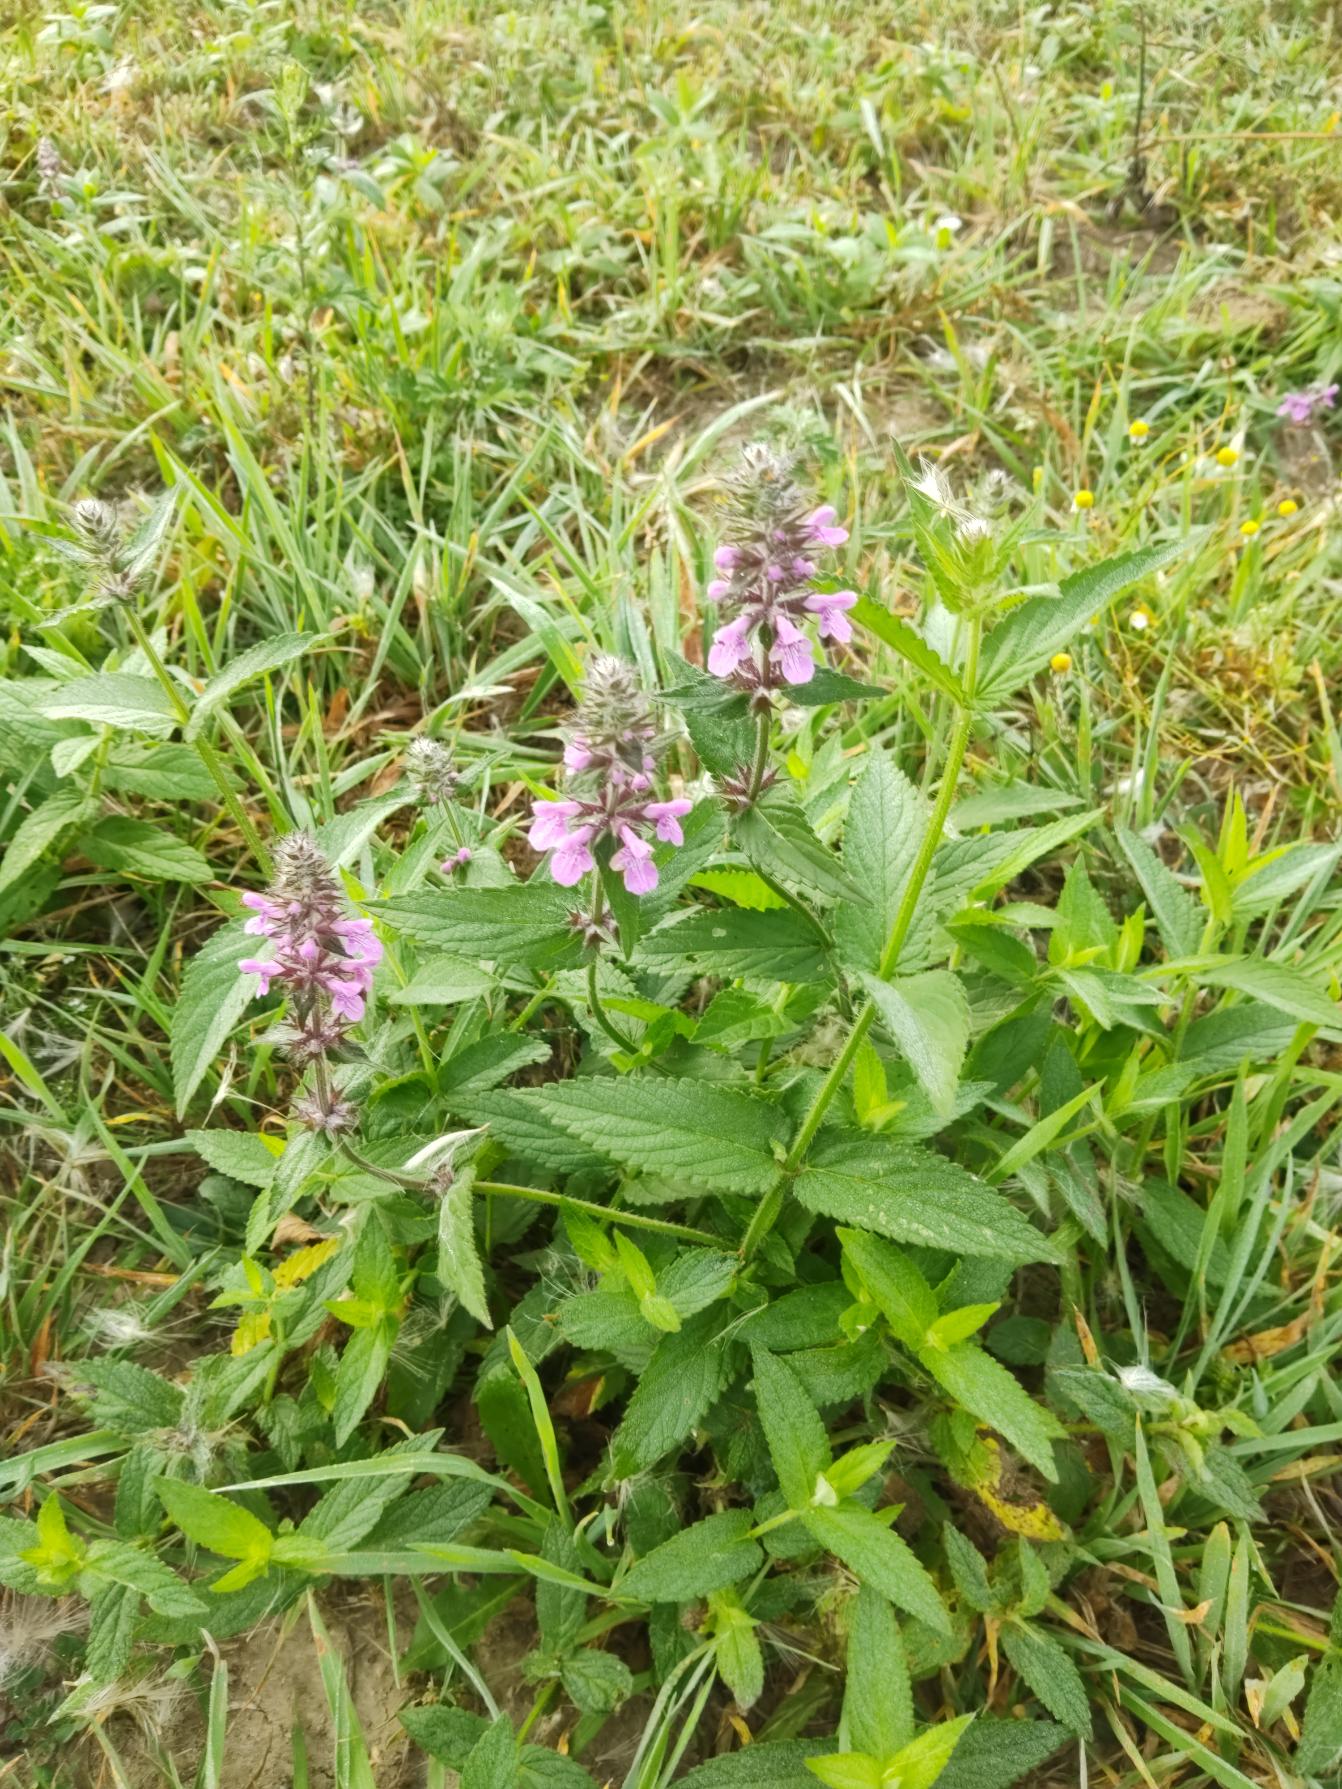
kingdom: Plantae
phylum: Tracheophyta
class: Magnoliopsida
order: Lamiales
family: Lamiaceae
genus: Stachys
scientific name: Stachys palustris
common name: Kær-galtetand
